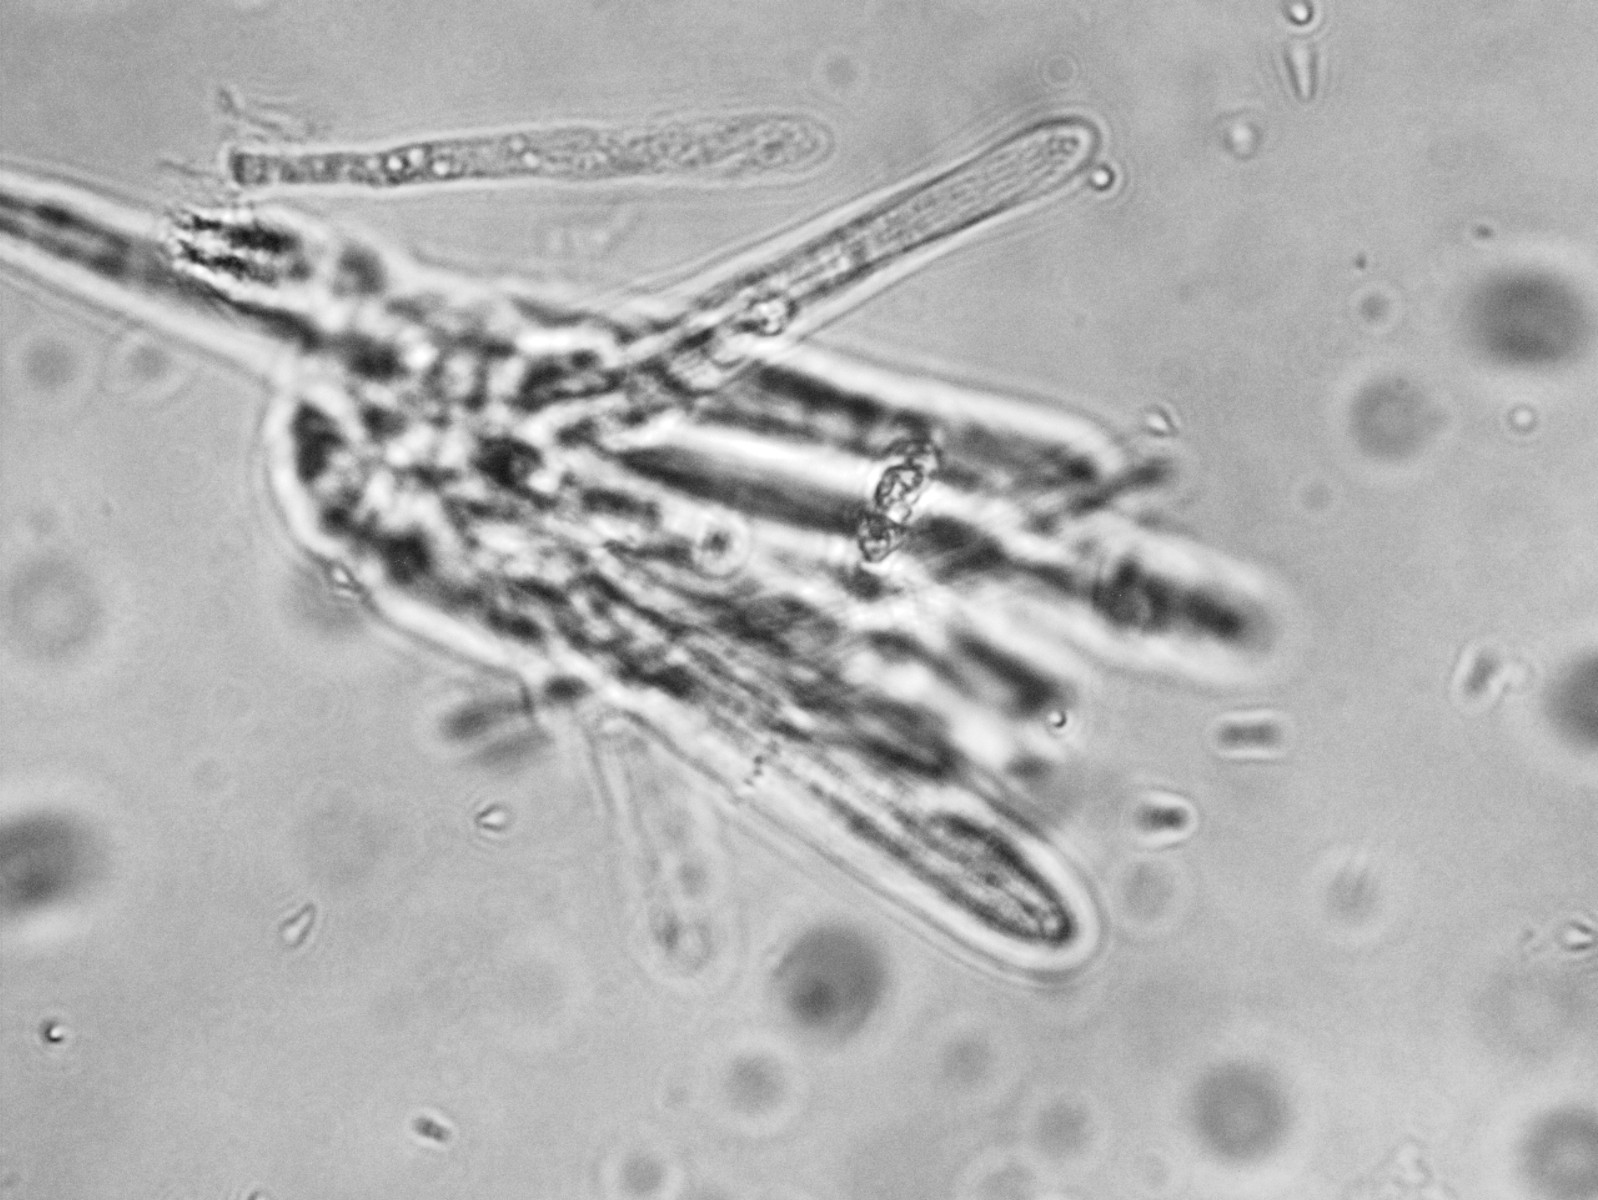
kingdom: Fungi
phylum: Ascomycota
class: Leotiomycetes
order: Helotiales
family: Lachnaceae
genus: Lachnum
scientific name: Lachnum impudicum
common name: vinter-frynseskive
